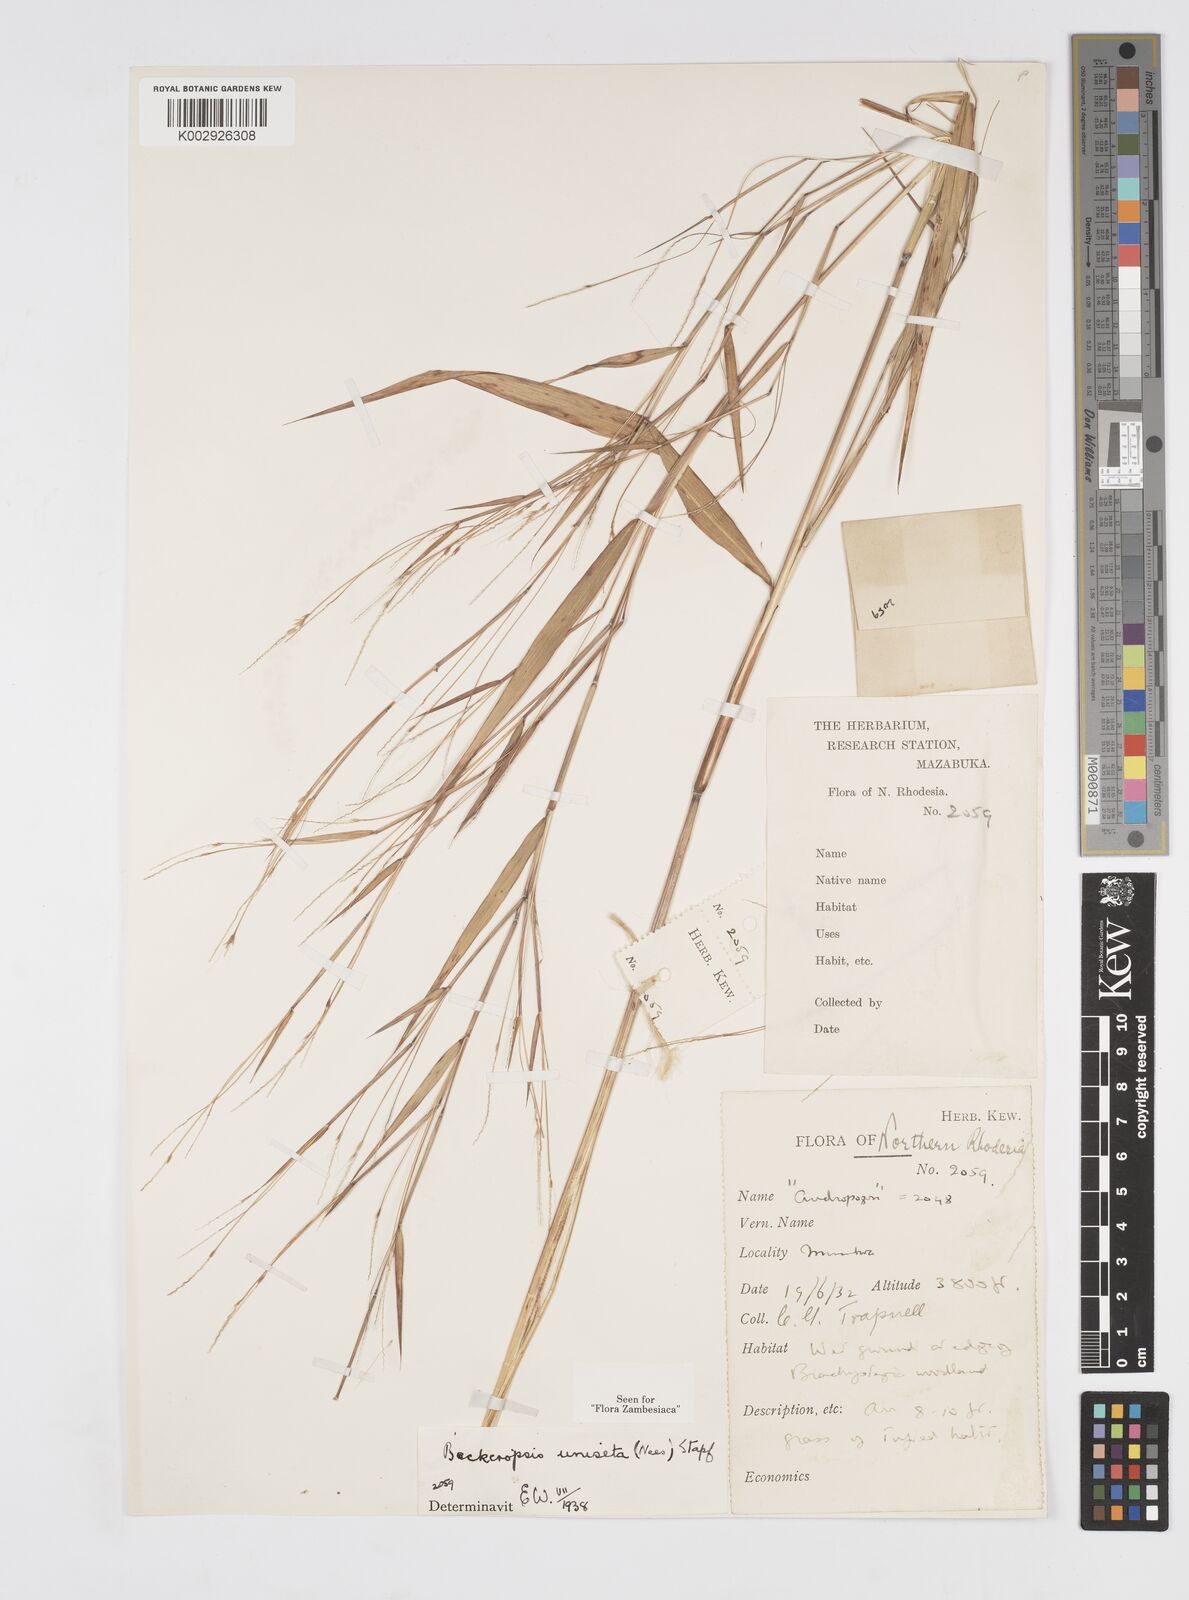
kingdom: Plantae
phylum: Tracheophyta
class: Liliopsida
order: Poales
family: Poaceae
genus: Cenchrus
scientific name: Cenchrus unisetus
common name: Natal grass
